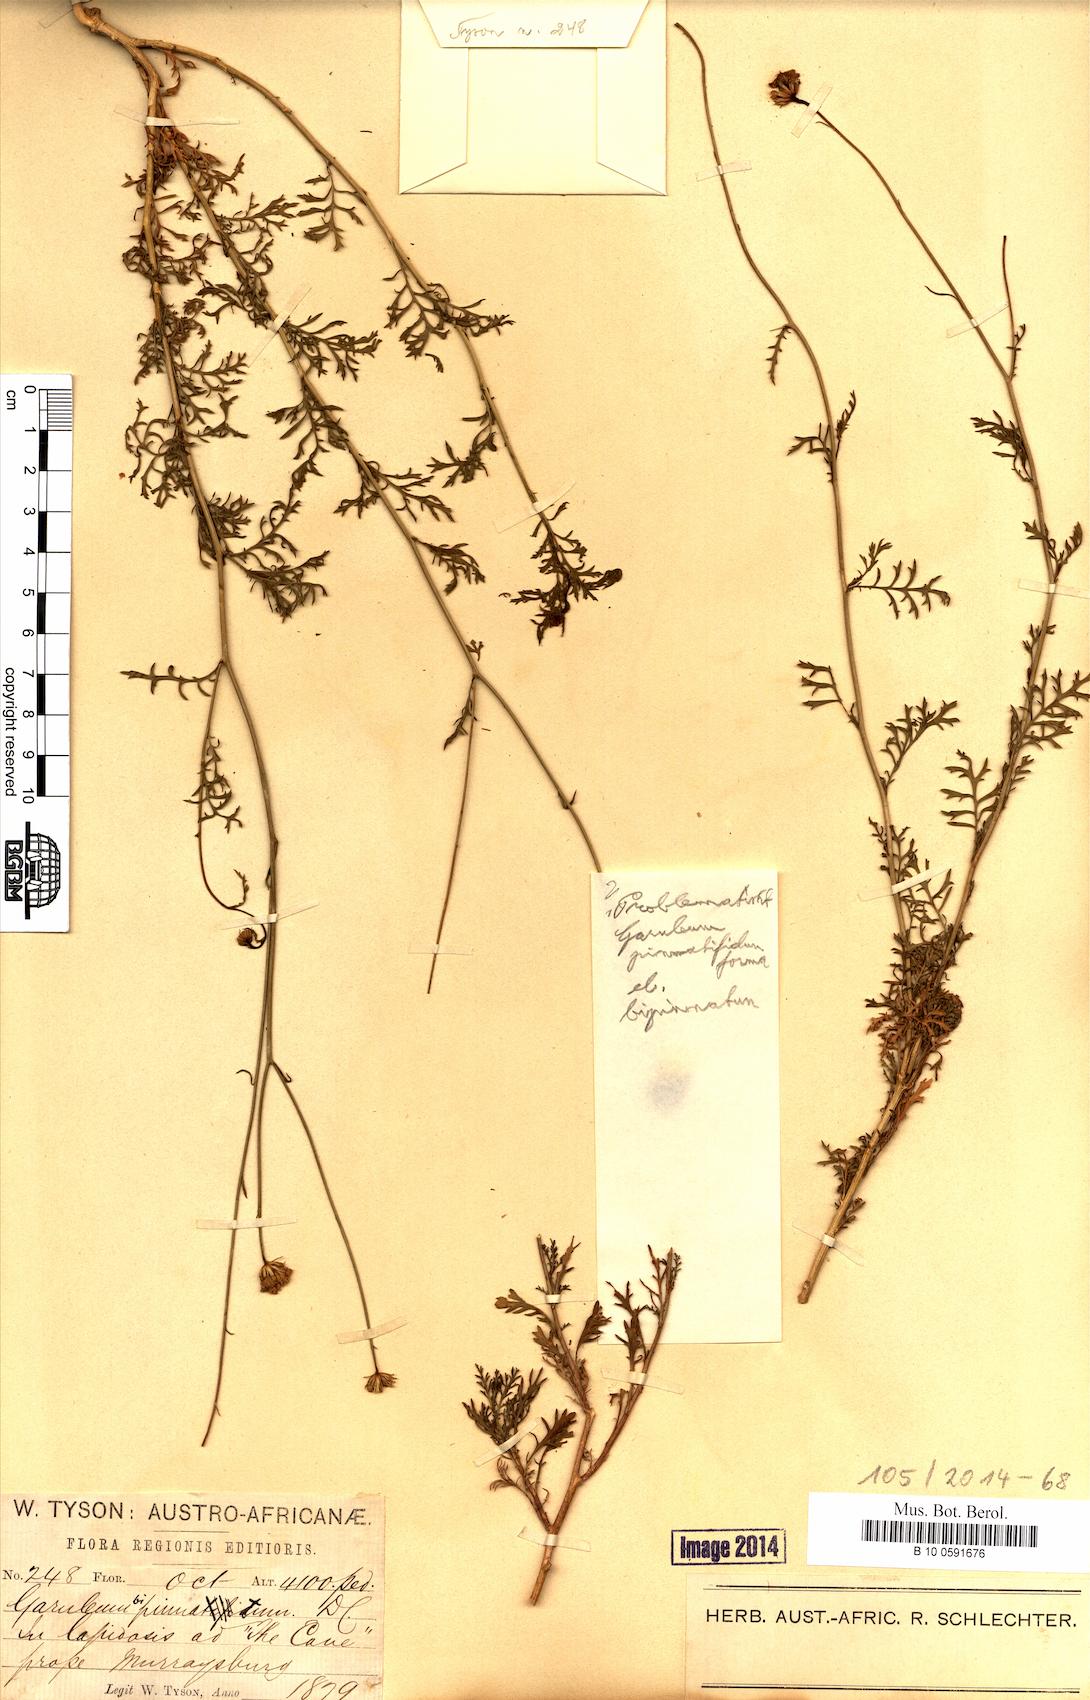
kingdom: Plantae
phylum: Tracheophyta
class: Magnoliopsida
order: Asterales
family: Asteraceae
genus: Garuleum
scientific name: Garuleum bipinnatum
